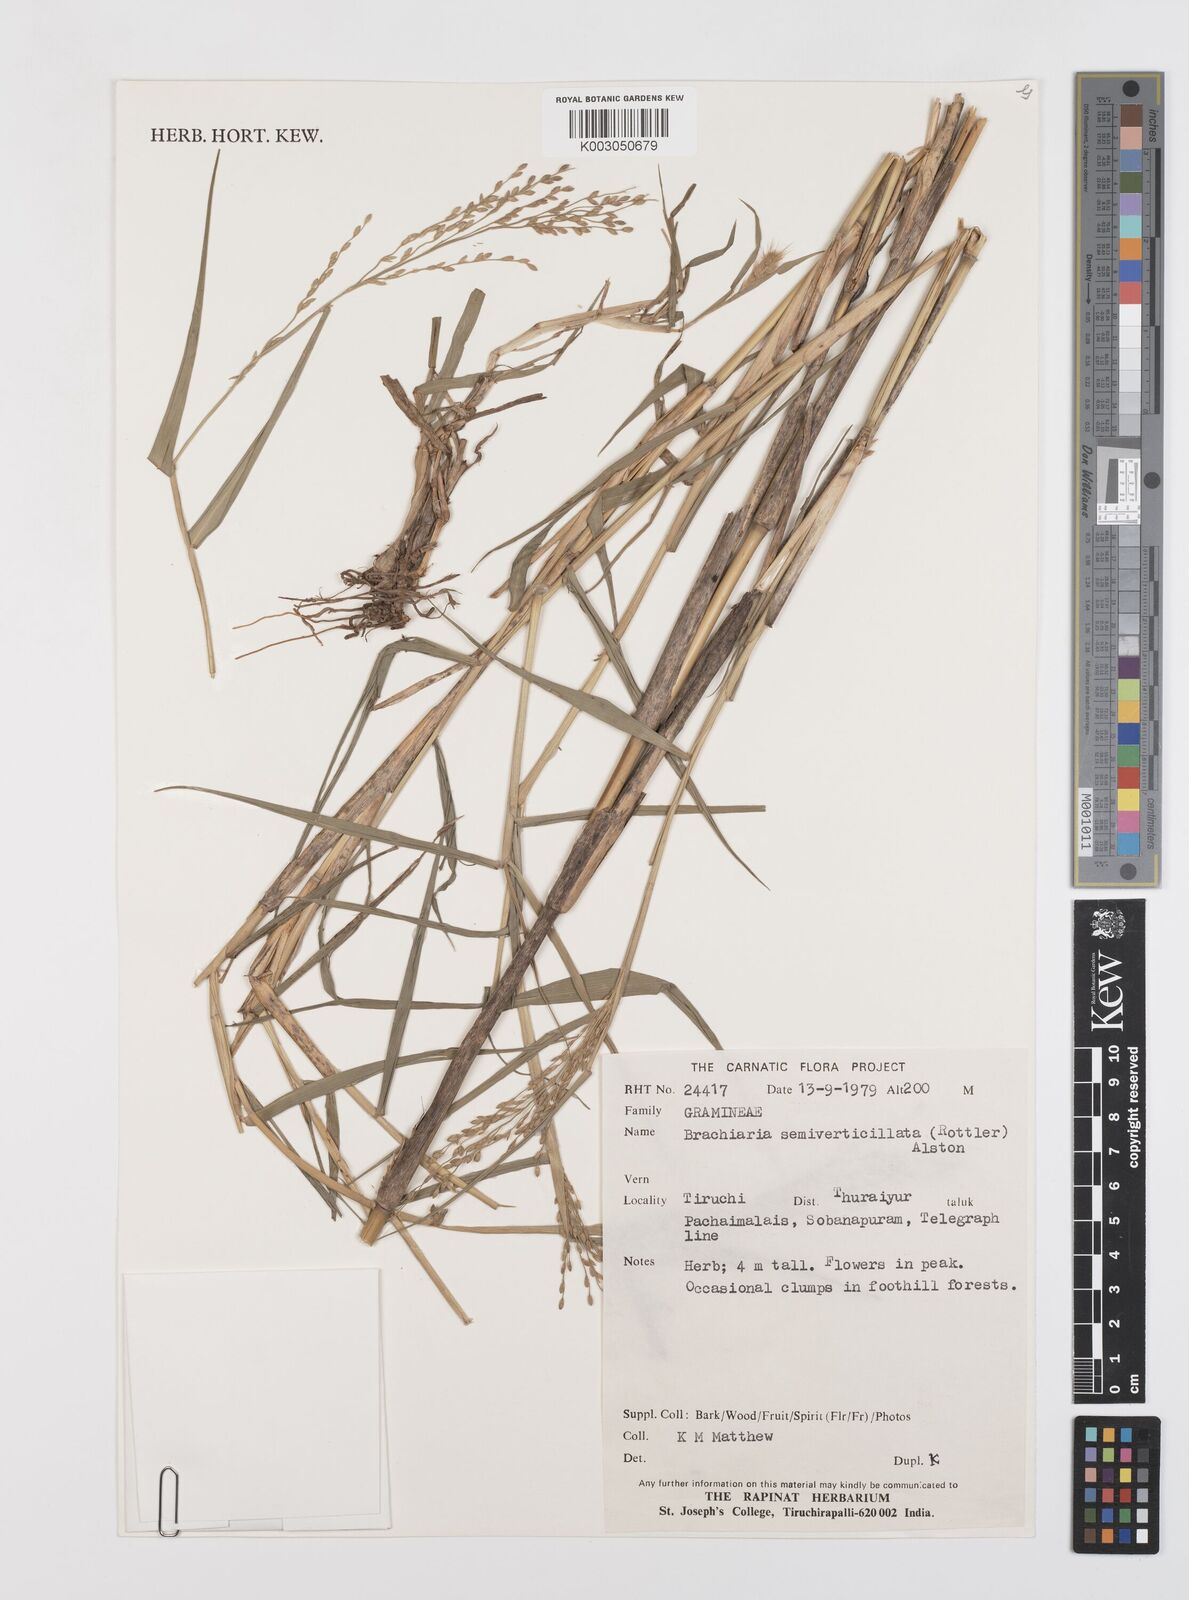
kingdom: Plantae
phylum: Tracheophyta
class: Liliopsida
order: Poales
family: Poaceae
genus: Urochloa
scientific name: Urochloa Brachiaria semiverticillata
